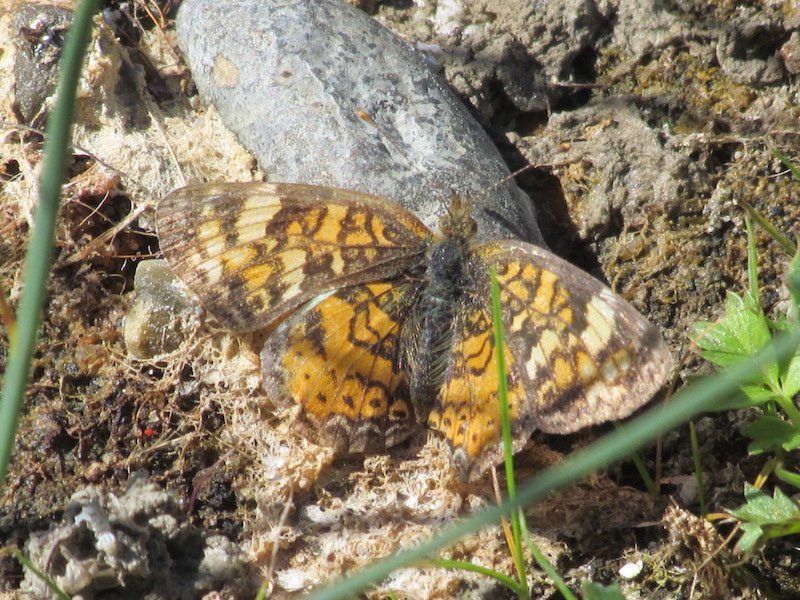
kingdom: Animalia
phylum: Arthropoda
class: Insecta
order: Lepidoptera
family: Nymphalidae
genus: Phyciodes
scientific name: Phyciodes
